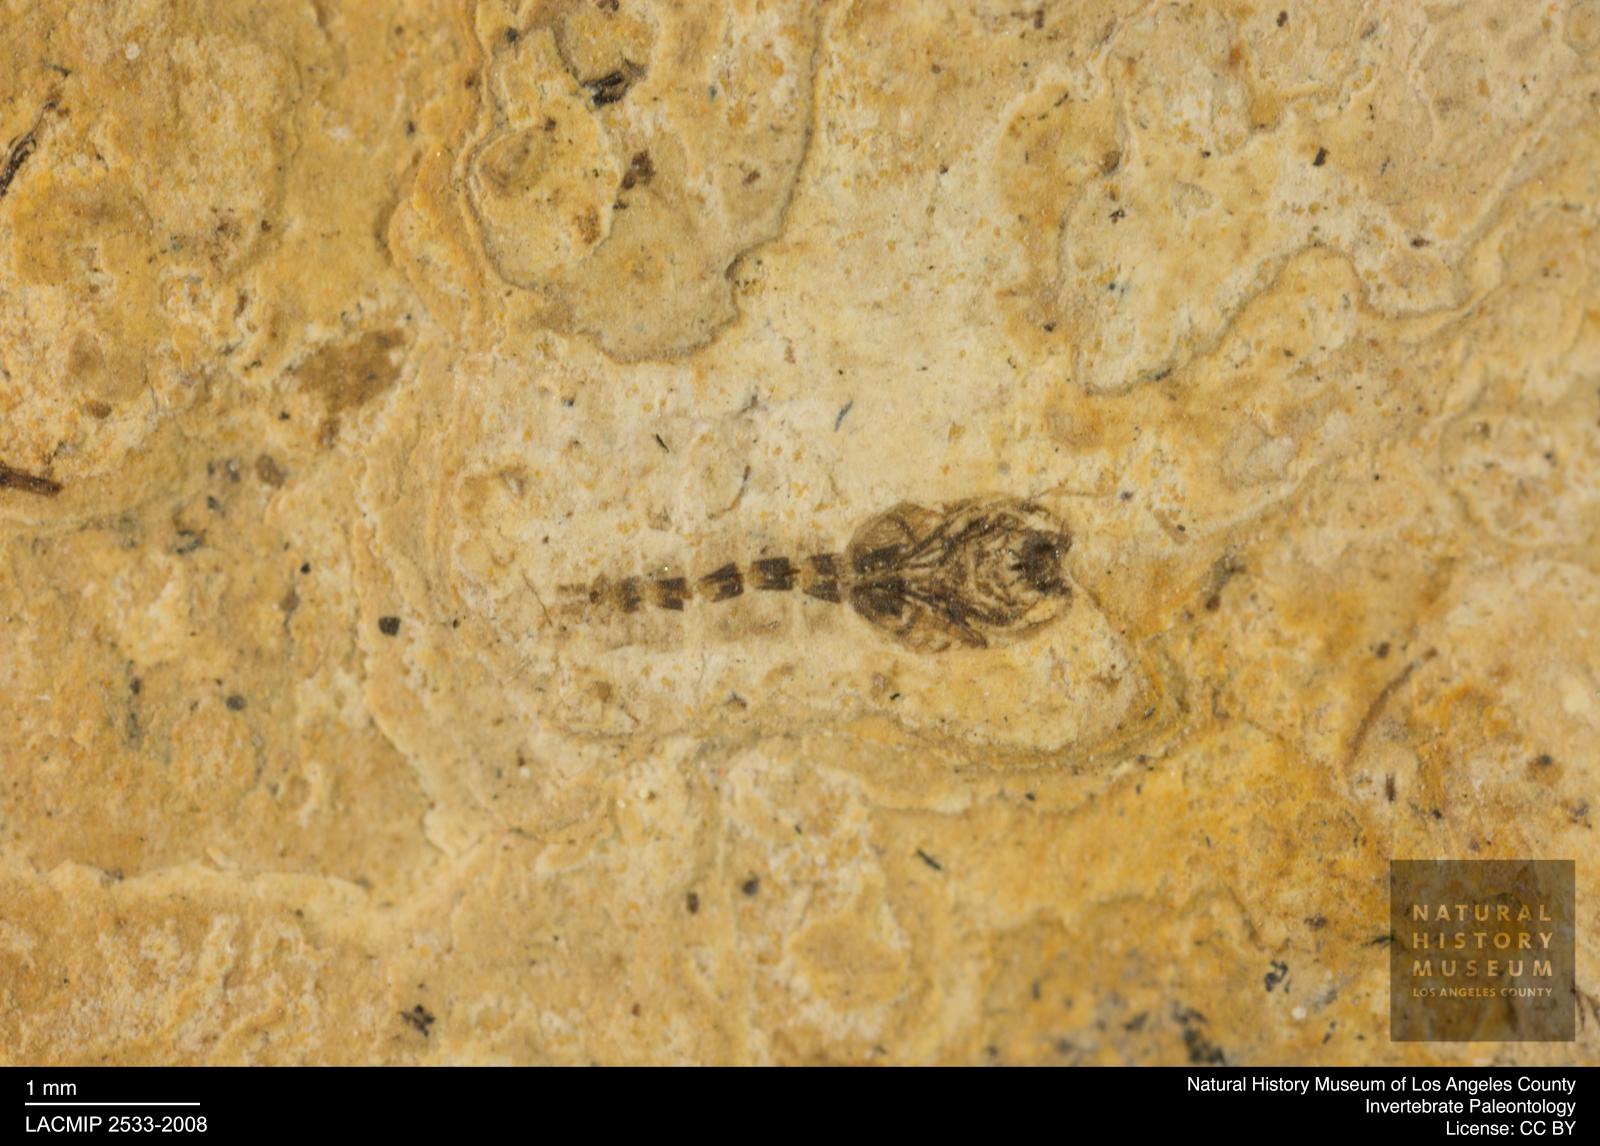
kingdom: Animalia
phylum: Arthropoda
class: Insecta
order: Diptera
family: Ceratopogonidae
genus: Ceratopogon
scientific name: Ceratopogon
